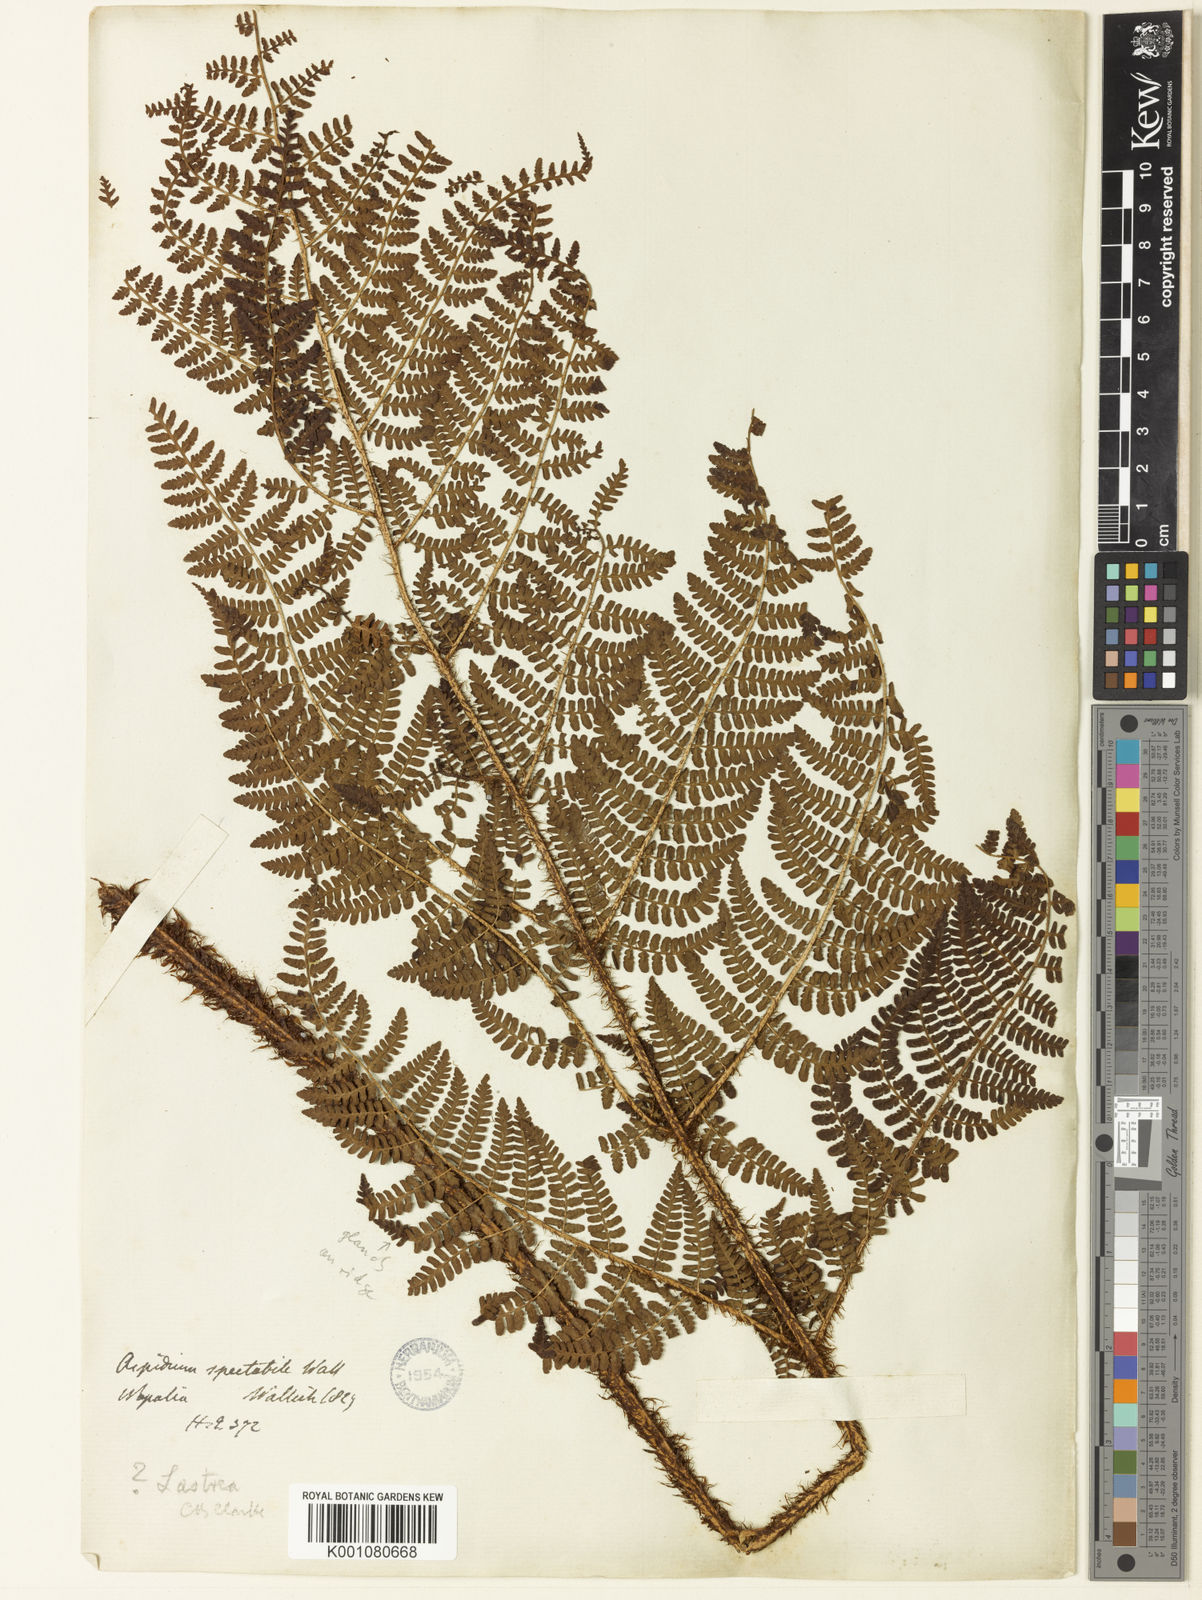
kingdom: Plantae
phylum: Tracheophyta
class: Polypodiopsida
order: Polypodiales
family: Dryopteridaceae
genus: Dryopteris
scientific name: Dryopteris peranema
